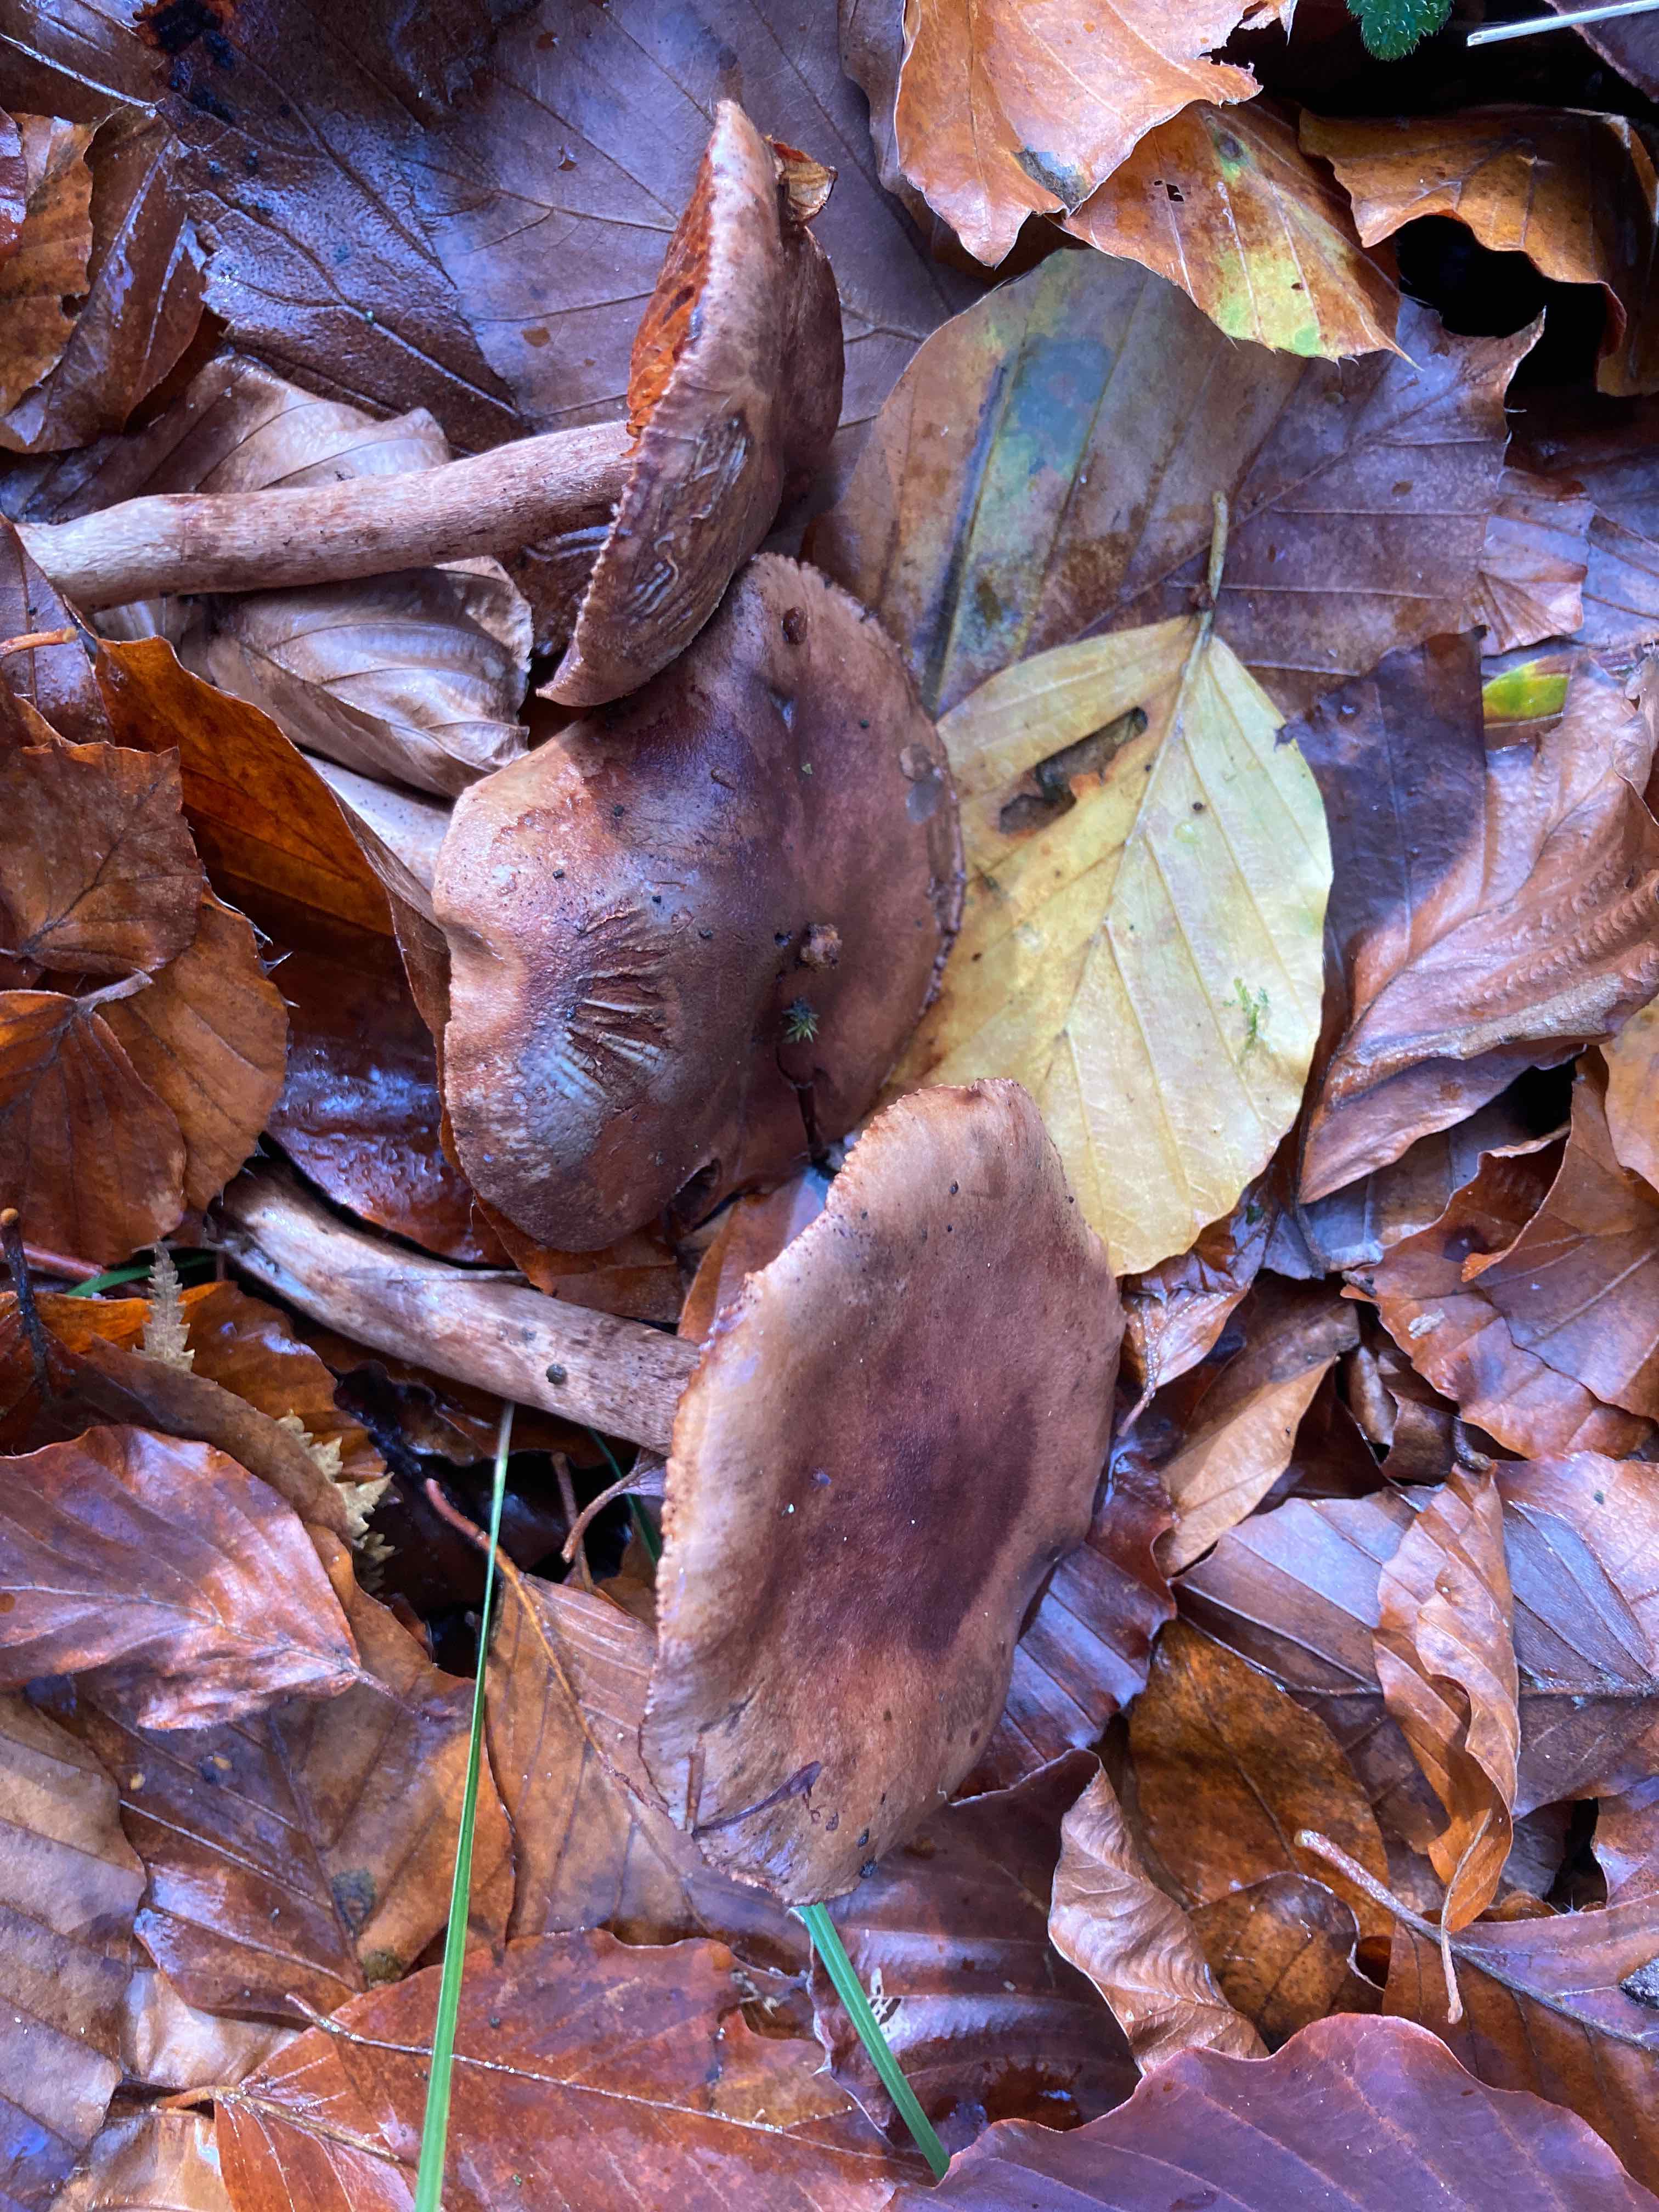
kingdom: Fungi
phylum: Basidiomycota
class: Agaricomycetes
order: Agaricales
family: Tricholomataceae
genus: Tricholoma
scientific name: Tricholoma ustale
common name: sveden ridderhat
